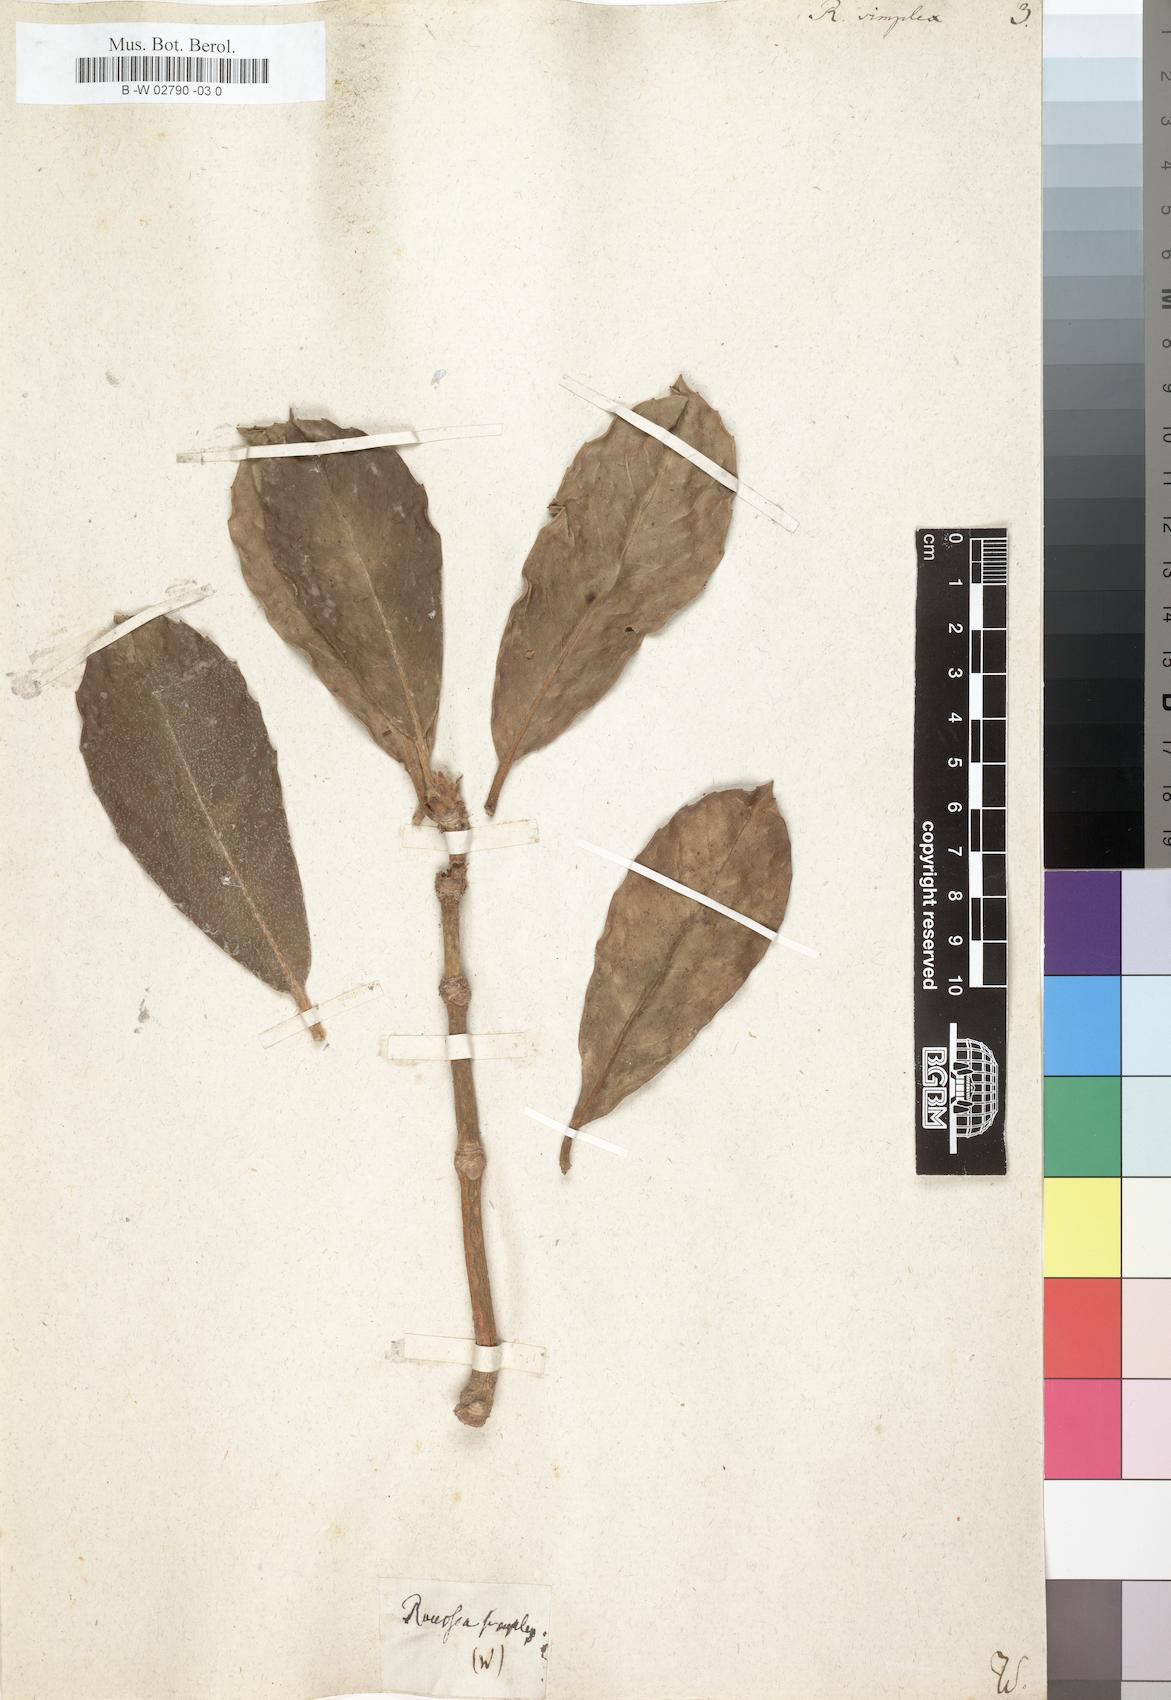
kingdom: Plantae
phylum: Tracheophyta
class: Magnoliopsida
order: Asterales
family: Rousseaceae
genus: Roussea
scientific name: Roussea simplex
